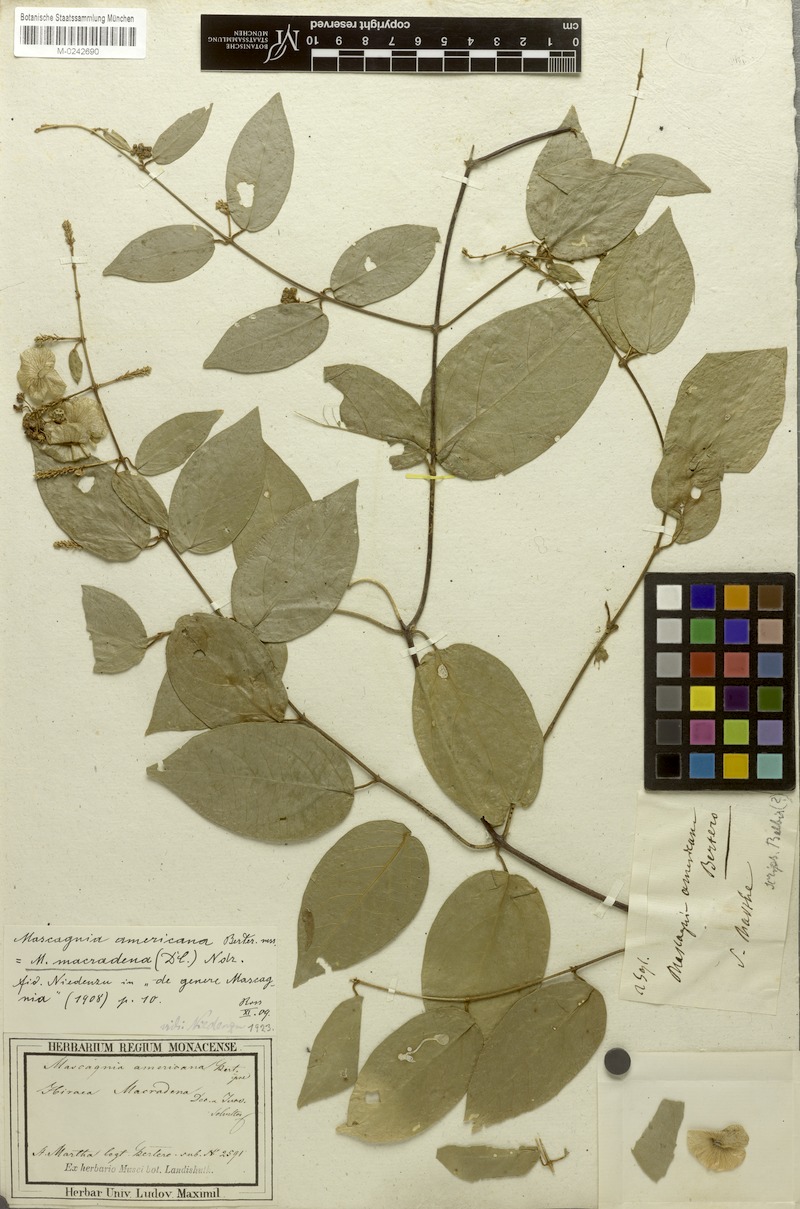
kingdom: Plantae
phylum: Tracheophyta
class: Magnoliopsida
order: Malpighiales
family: Malpighiaceae
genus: Mascagnia
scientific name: Mascagnia macradena
